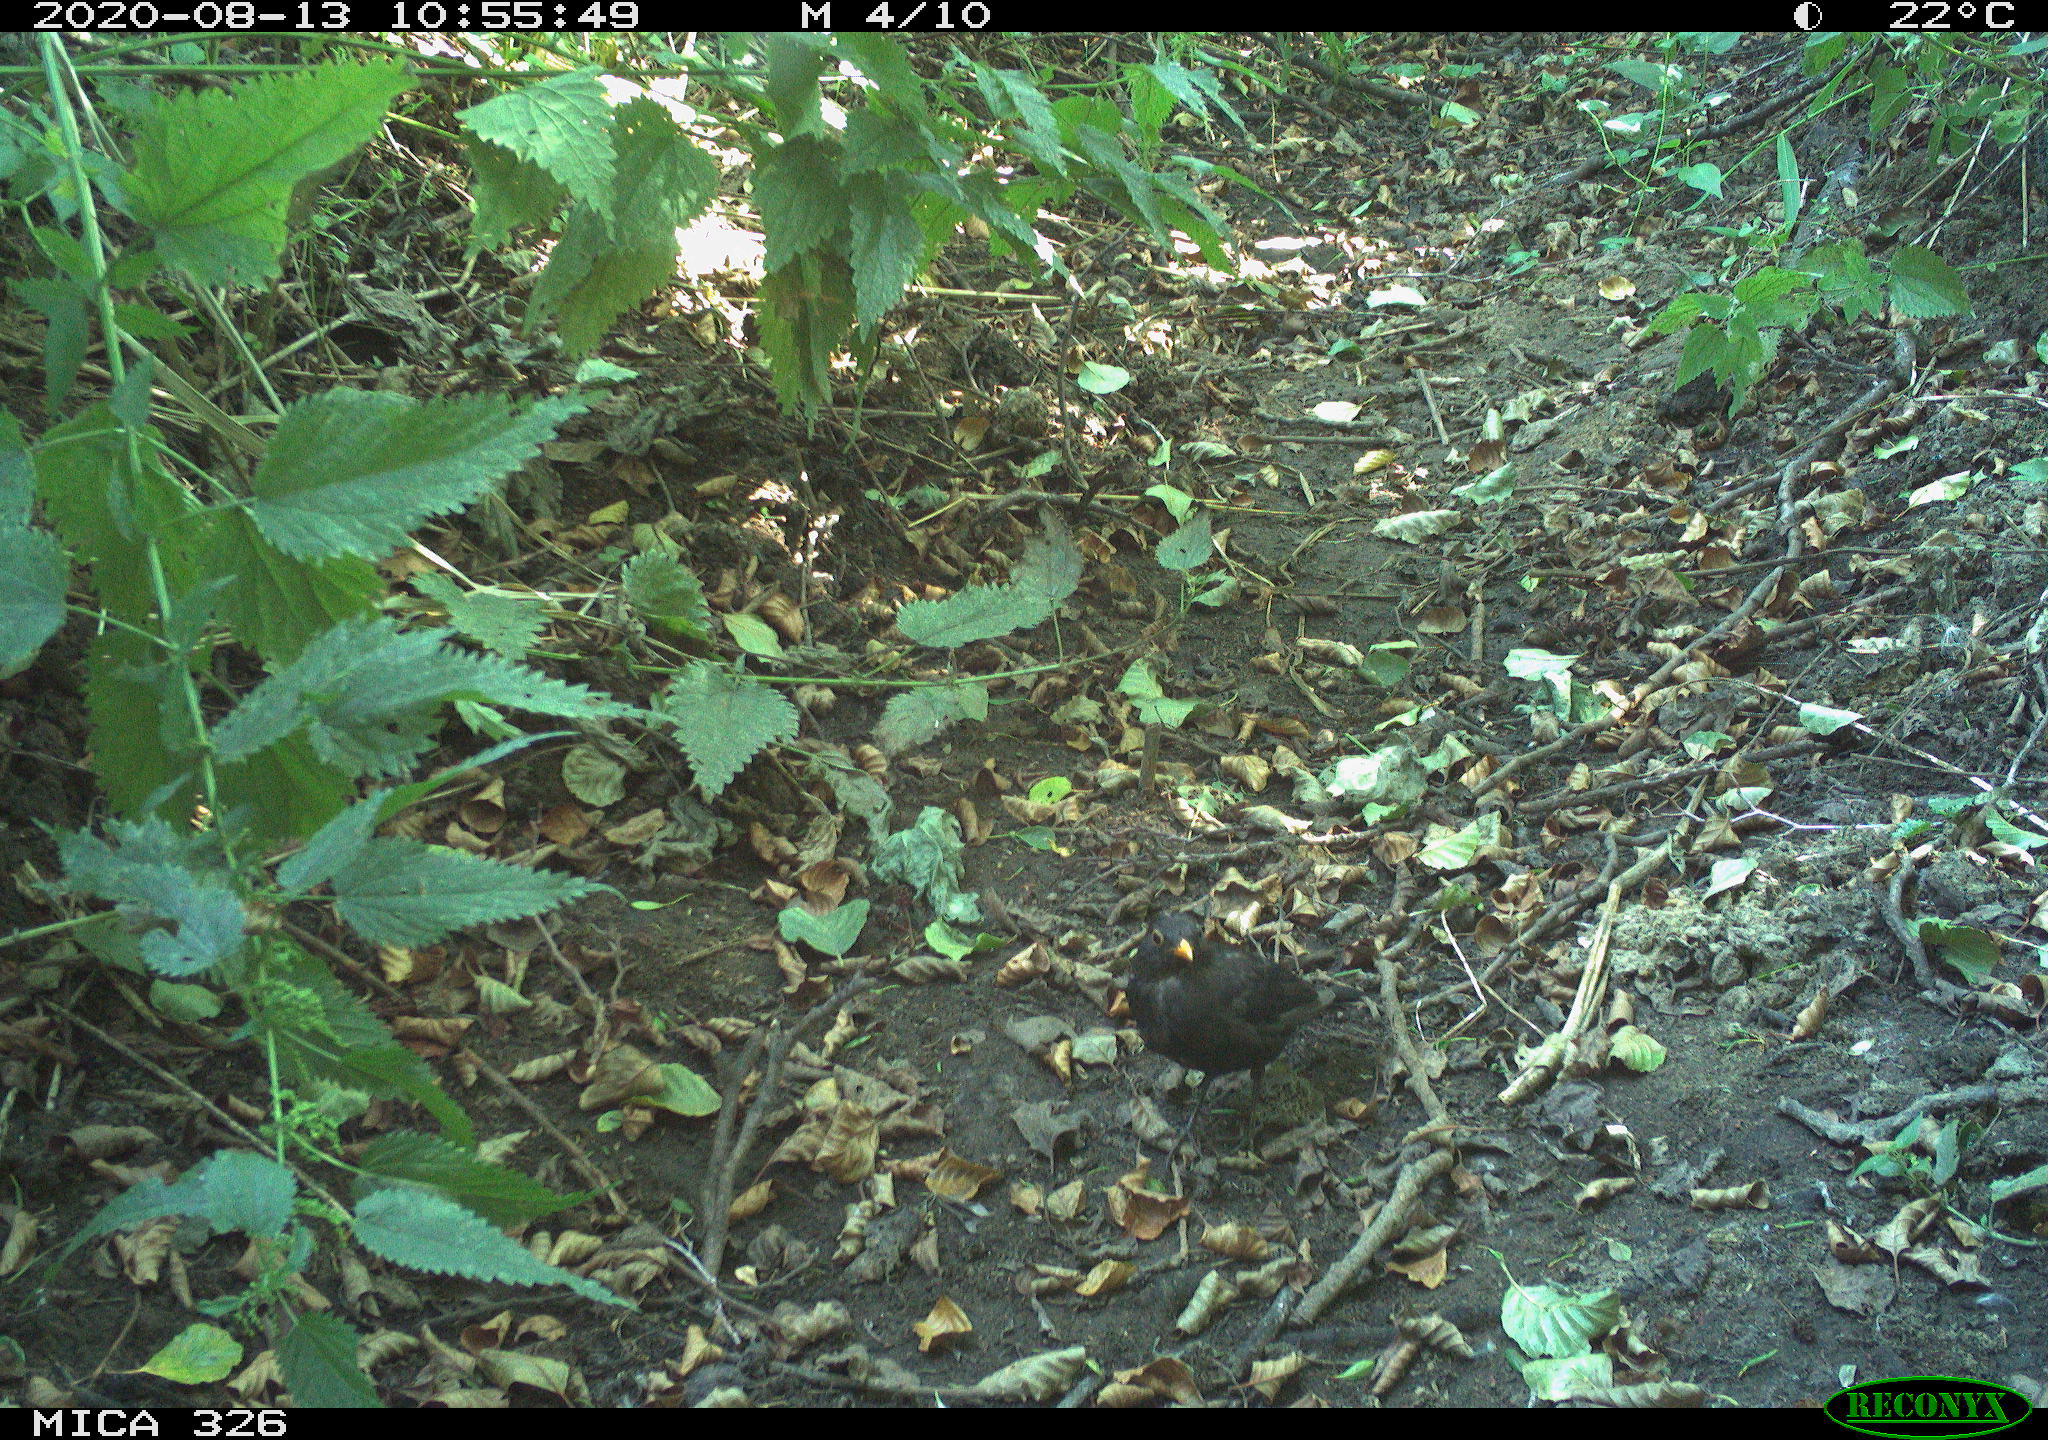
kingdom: Animalia
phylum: Chordata
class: Aves
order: Passeriformes
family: Turdidae
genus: Turdus
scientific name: Turdus merula
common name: Common blackbird
